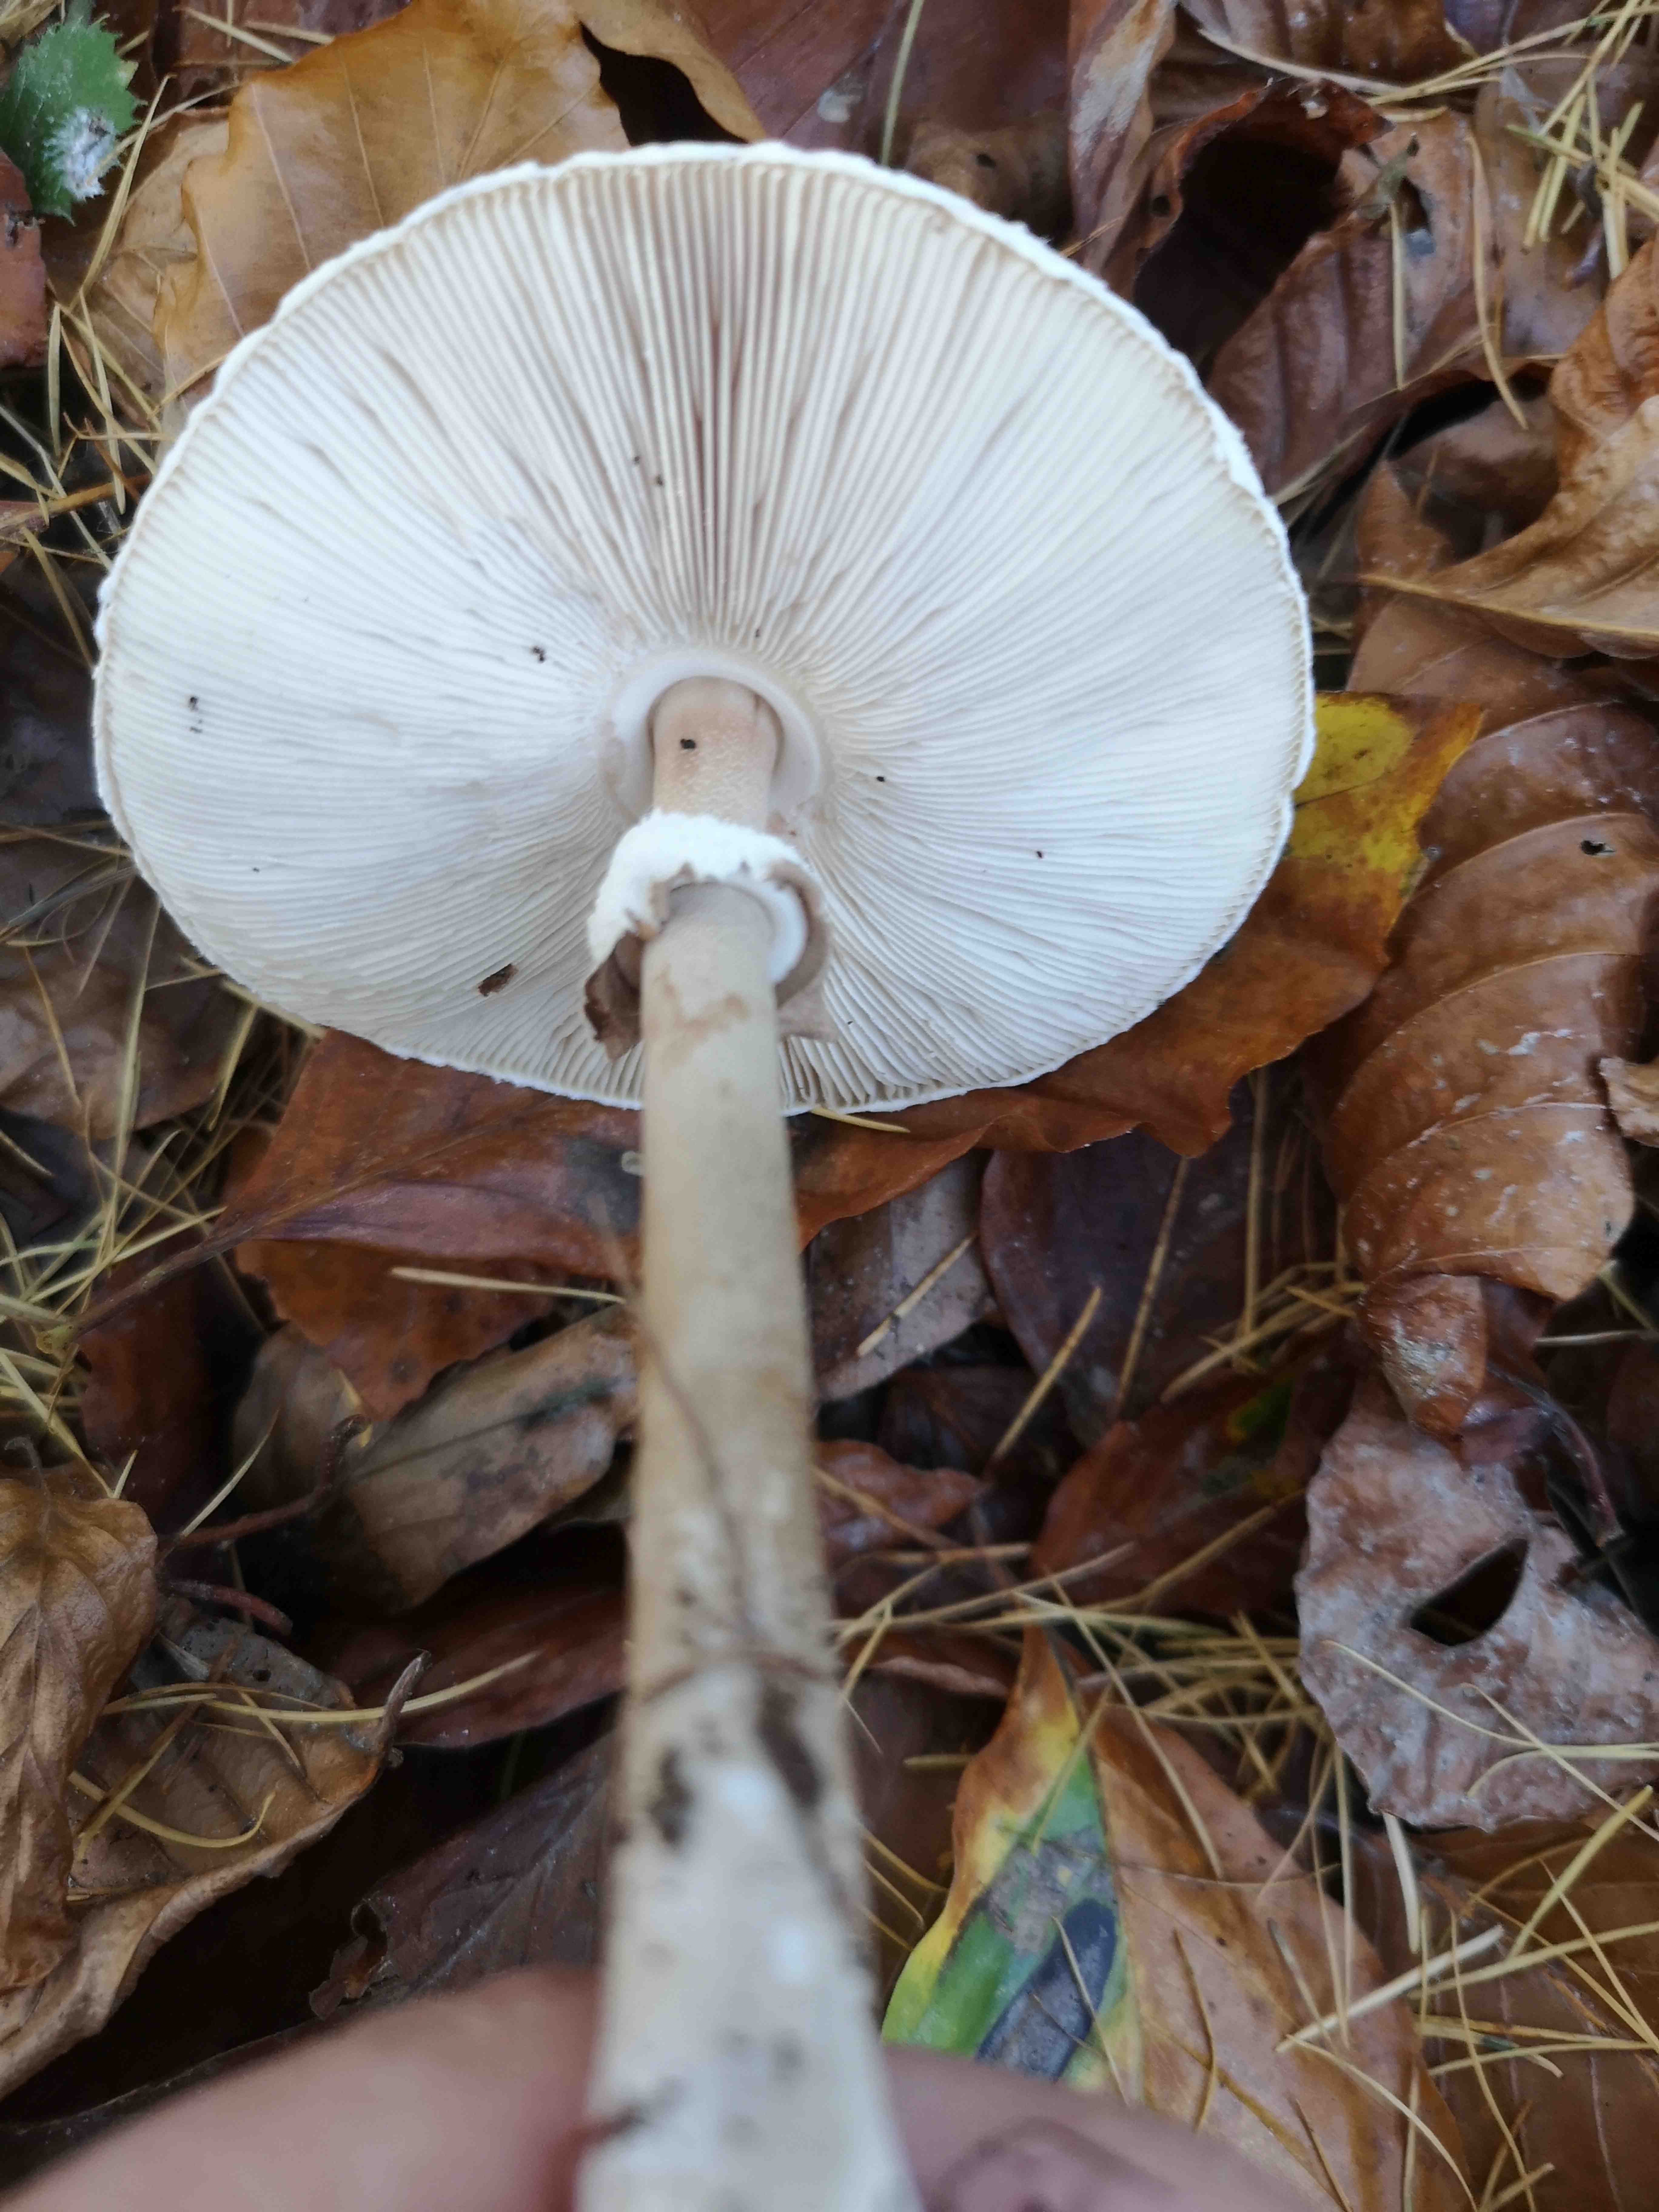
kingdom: Fungi
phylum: Basidiomycota
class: Agaricomycetes
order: Agaricales
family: Agaricaceae
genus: Macrolepiota
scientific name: Macrolepiota mastoidea
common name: puklet kæmpeparasolhat
